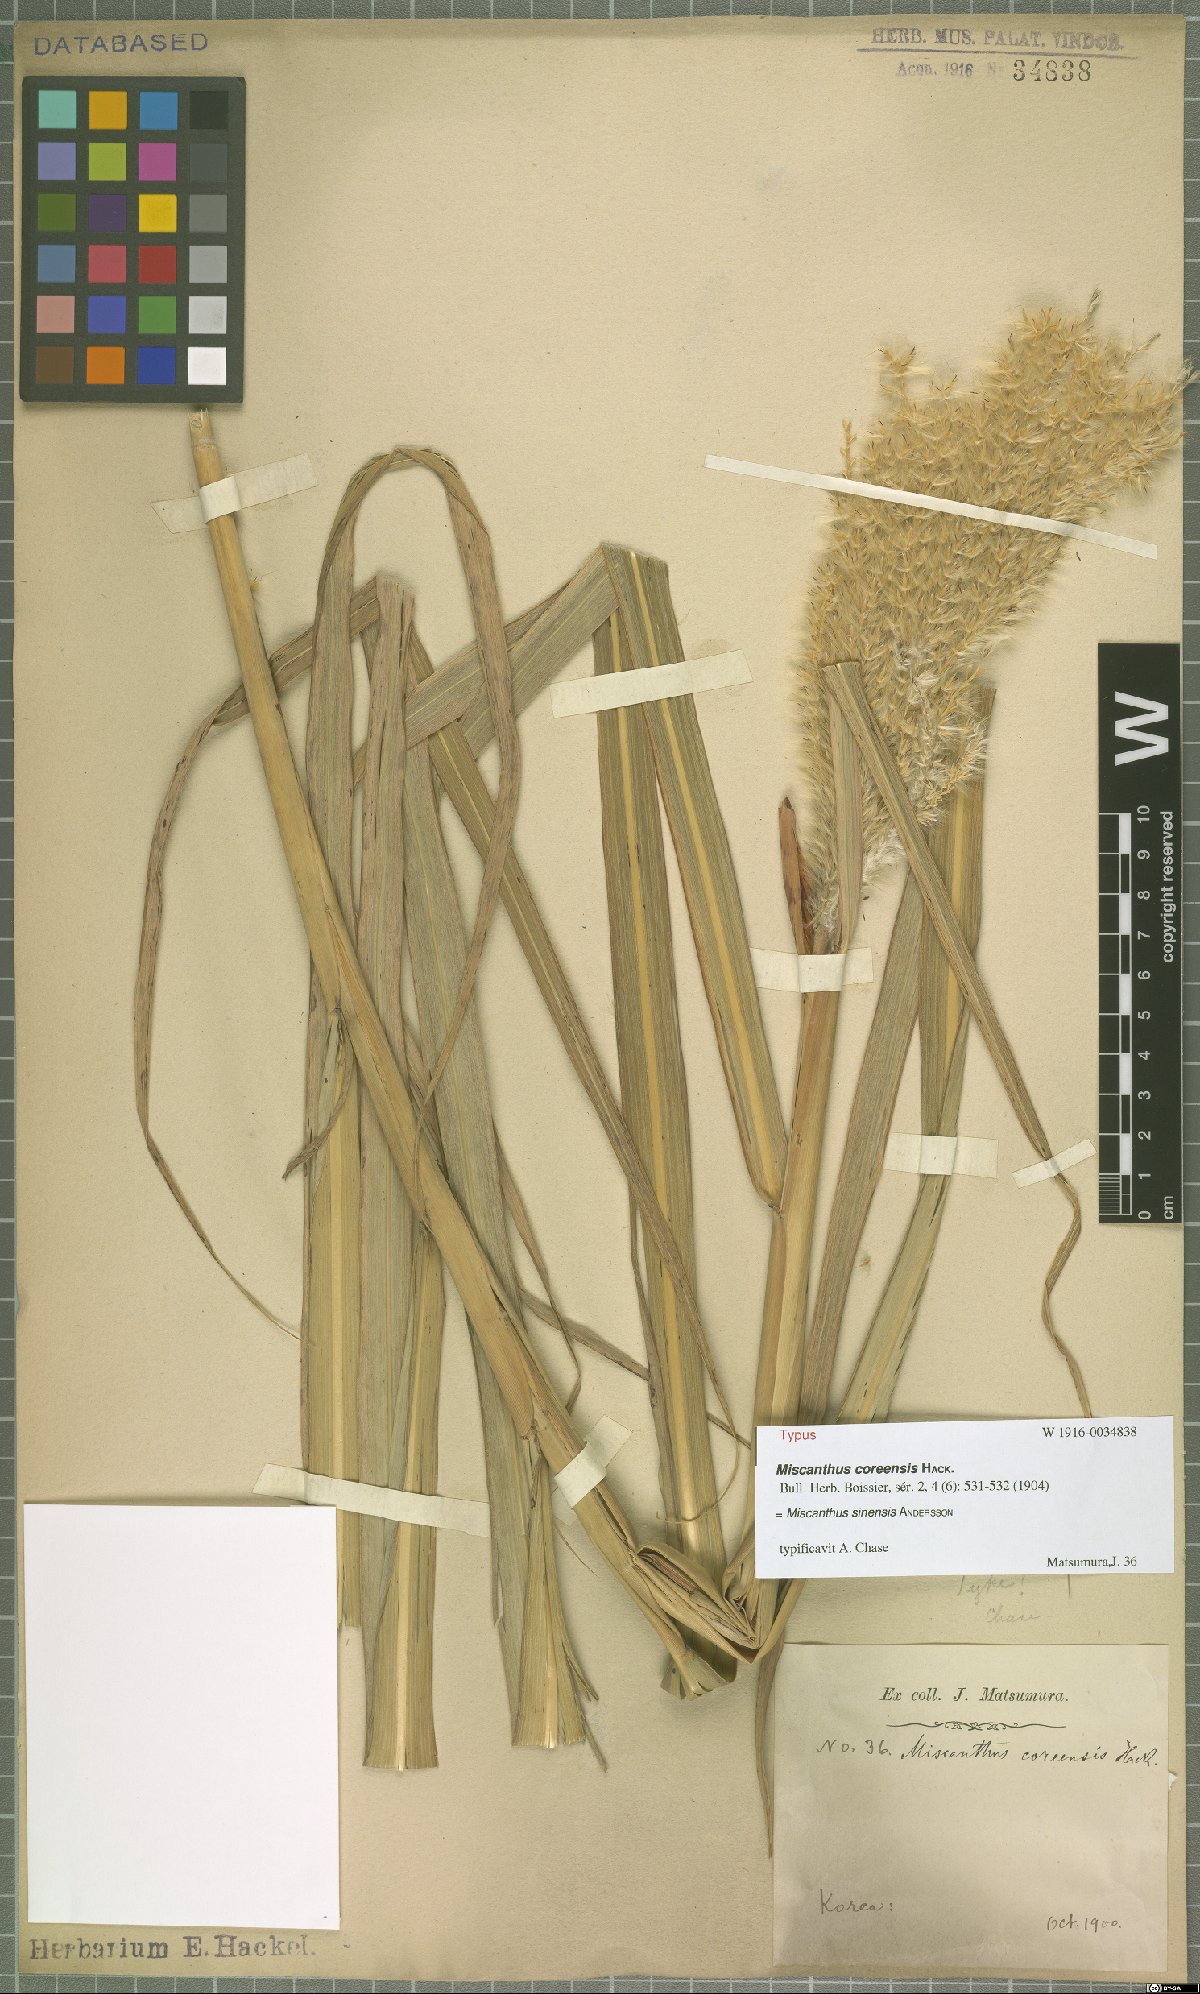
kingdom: Plantae
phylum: Tracheophyta
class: Liliopsida
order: Poales
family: Poaceae
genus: Miscanthus
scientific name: Miscanthus sinensis
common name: Chinese silvergrass
